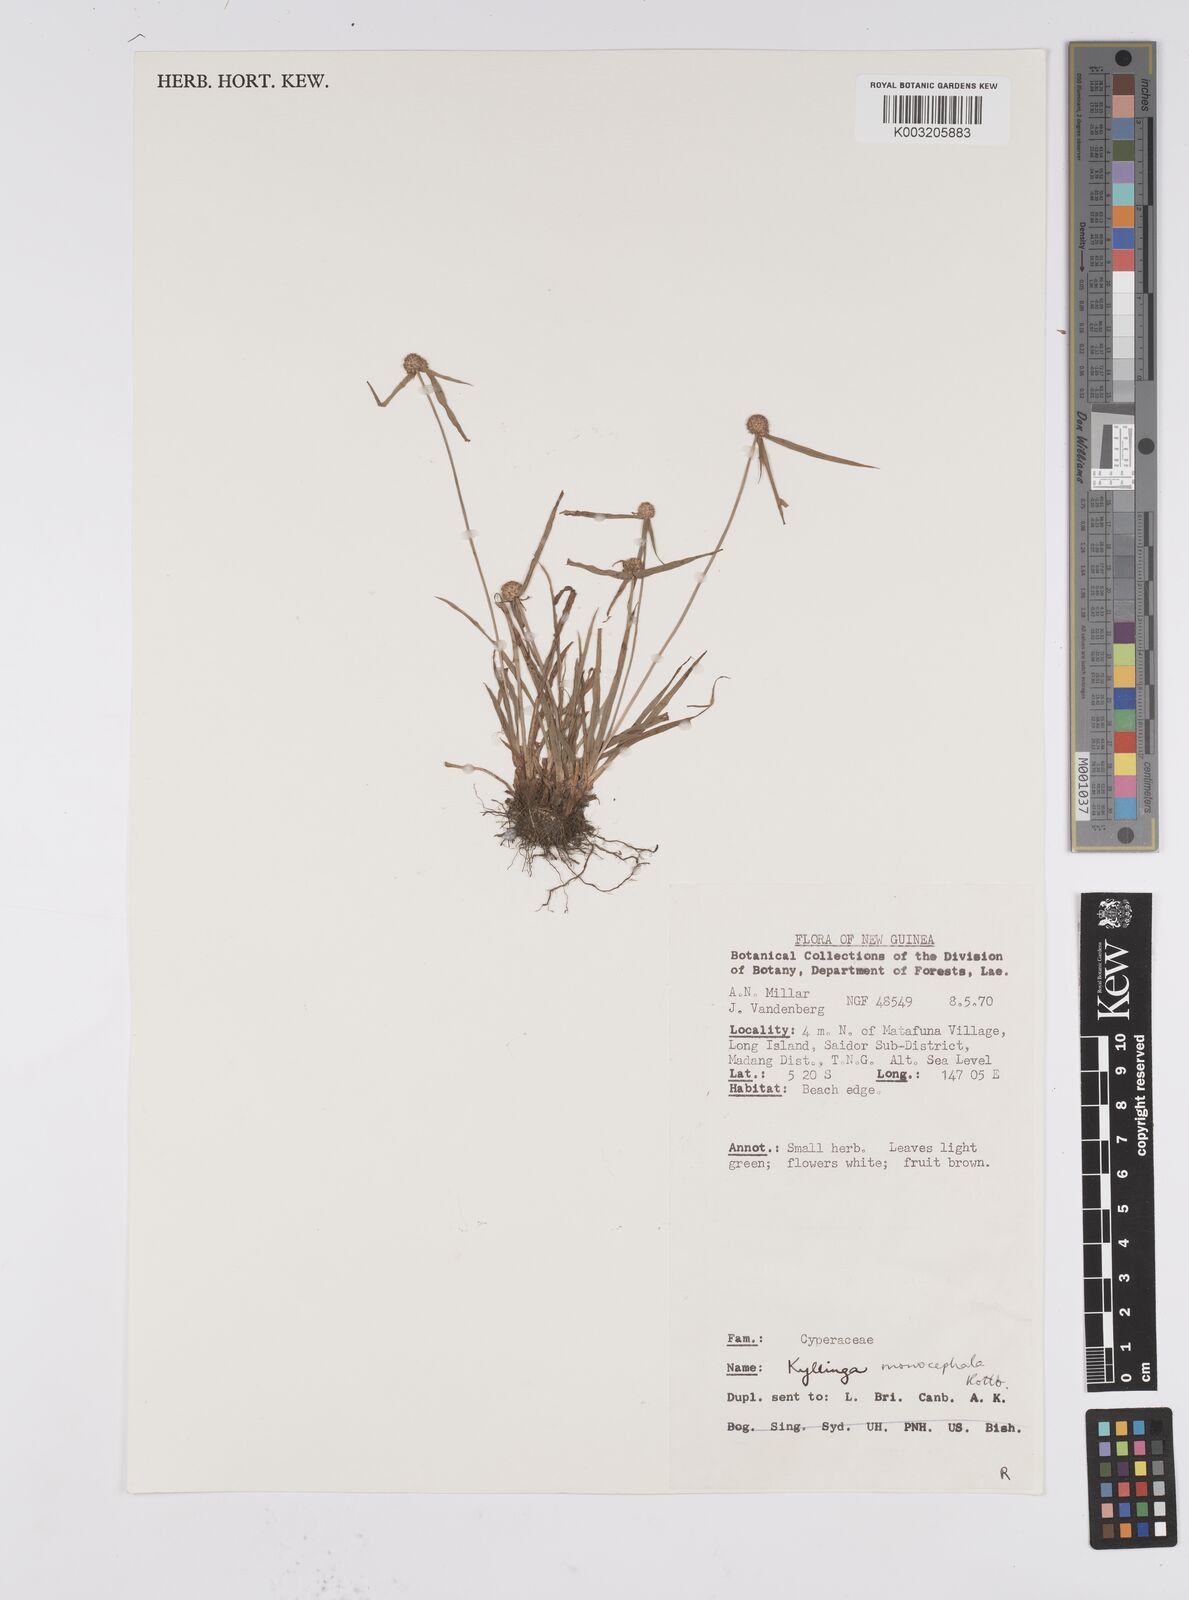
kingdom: Plantae
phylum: Tracheophyta
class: Liliopsida
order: Poales
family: Cyperaceae
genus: Cyperus
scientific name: Cyperus nemoralis
